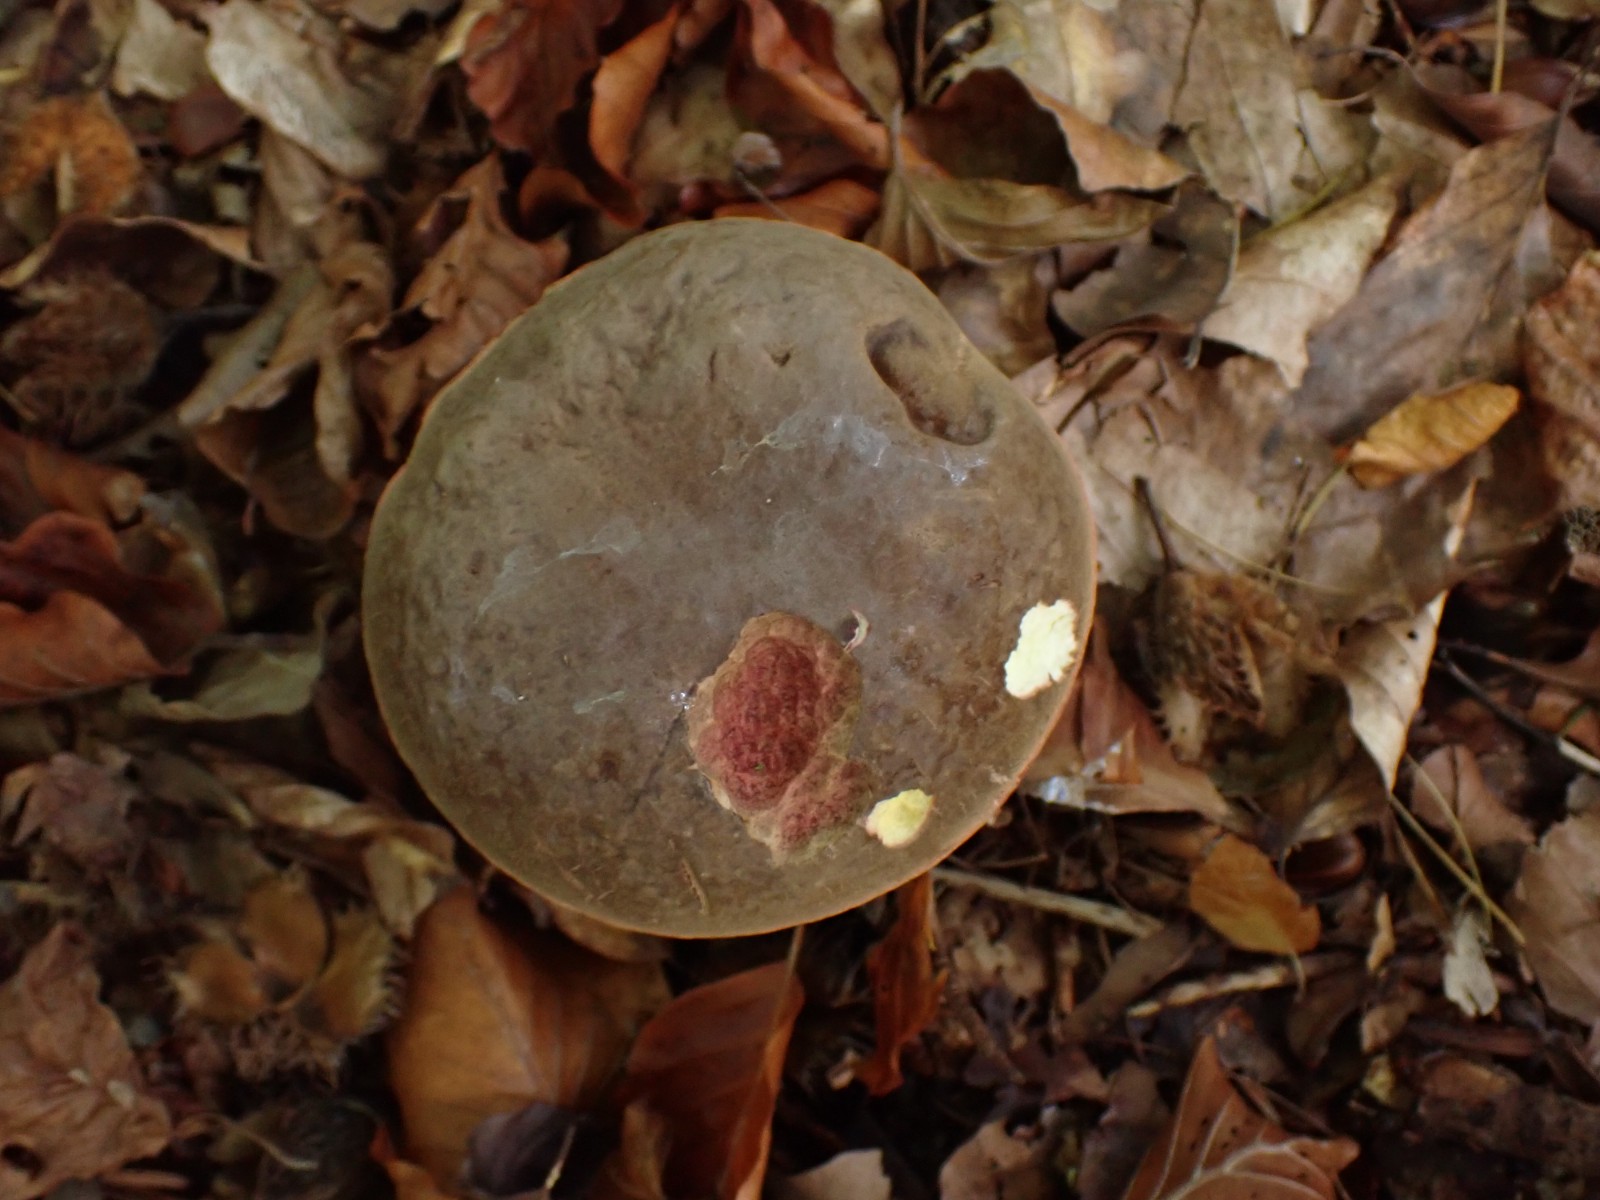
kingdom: Fungi
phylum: Basidiomycota
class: Agaricomycetes
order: Boletales
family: Boletaceae
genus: Xerocomellus
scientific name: Xerocomellus pruinatus
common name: dugget rørhat
